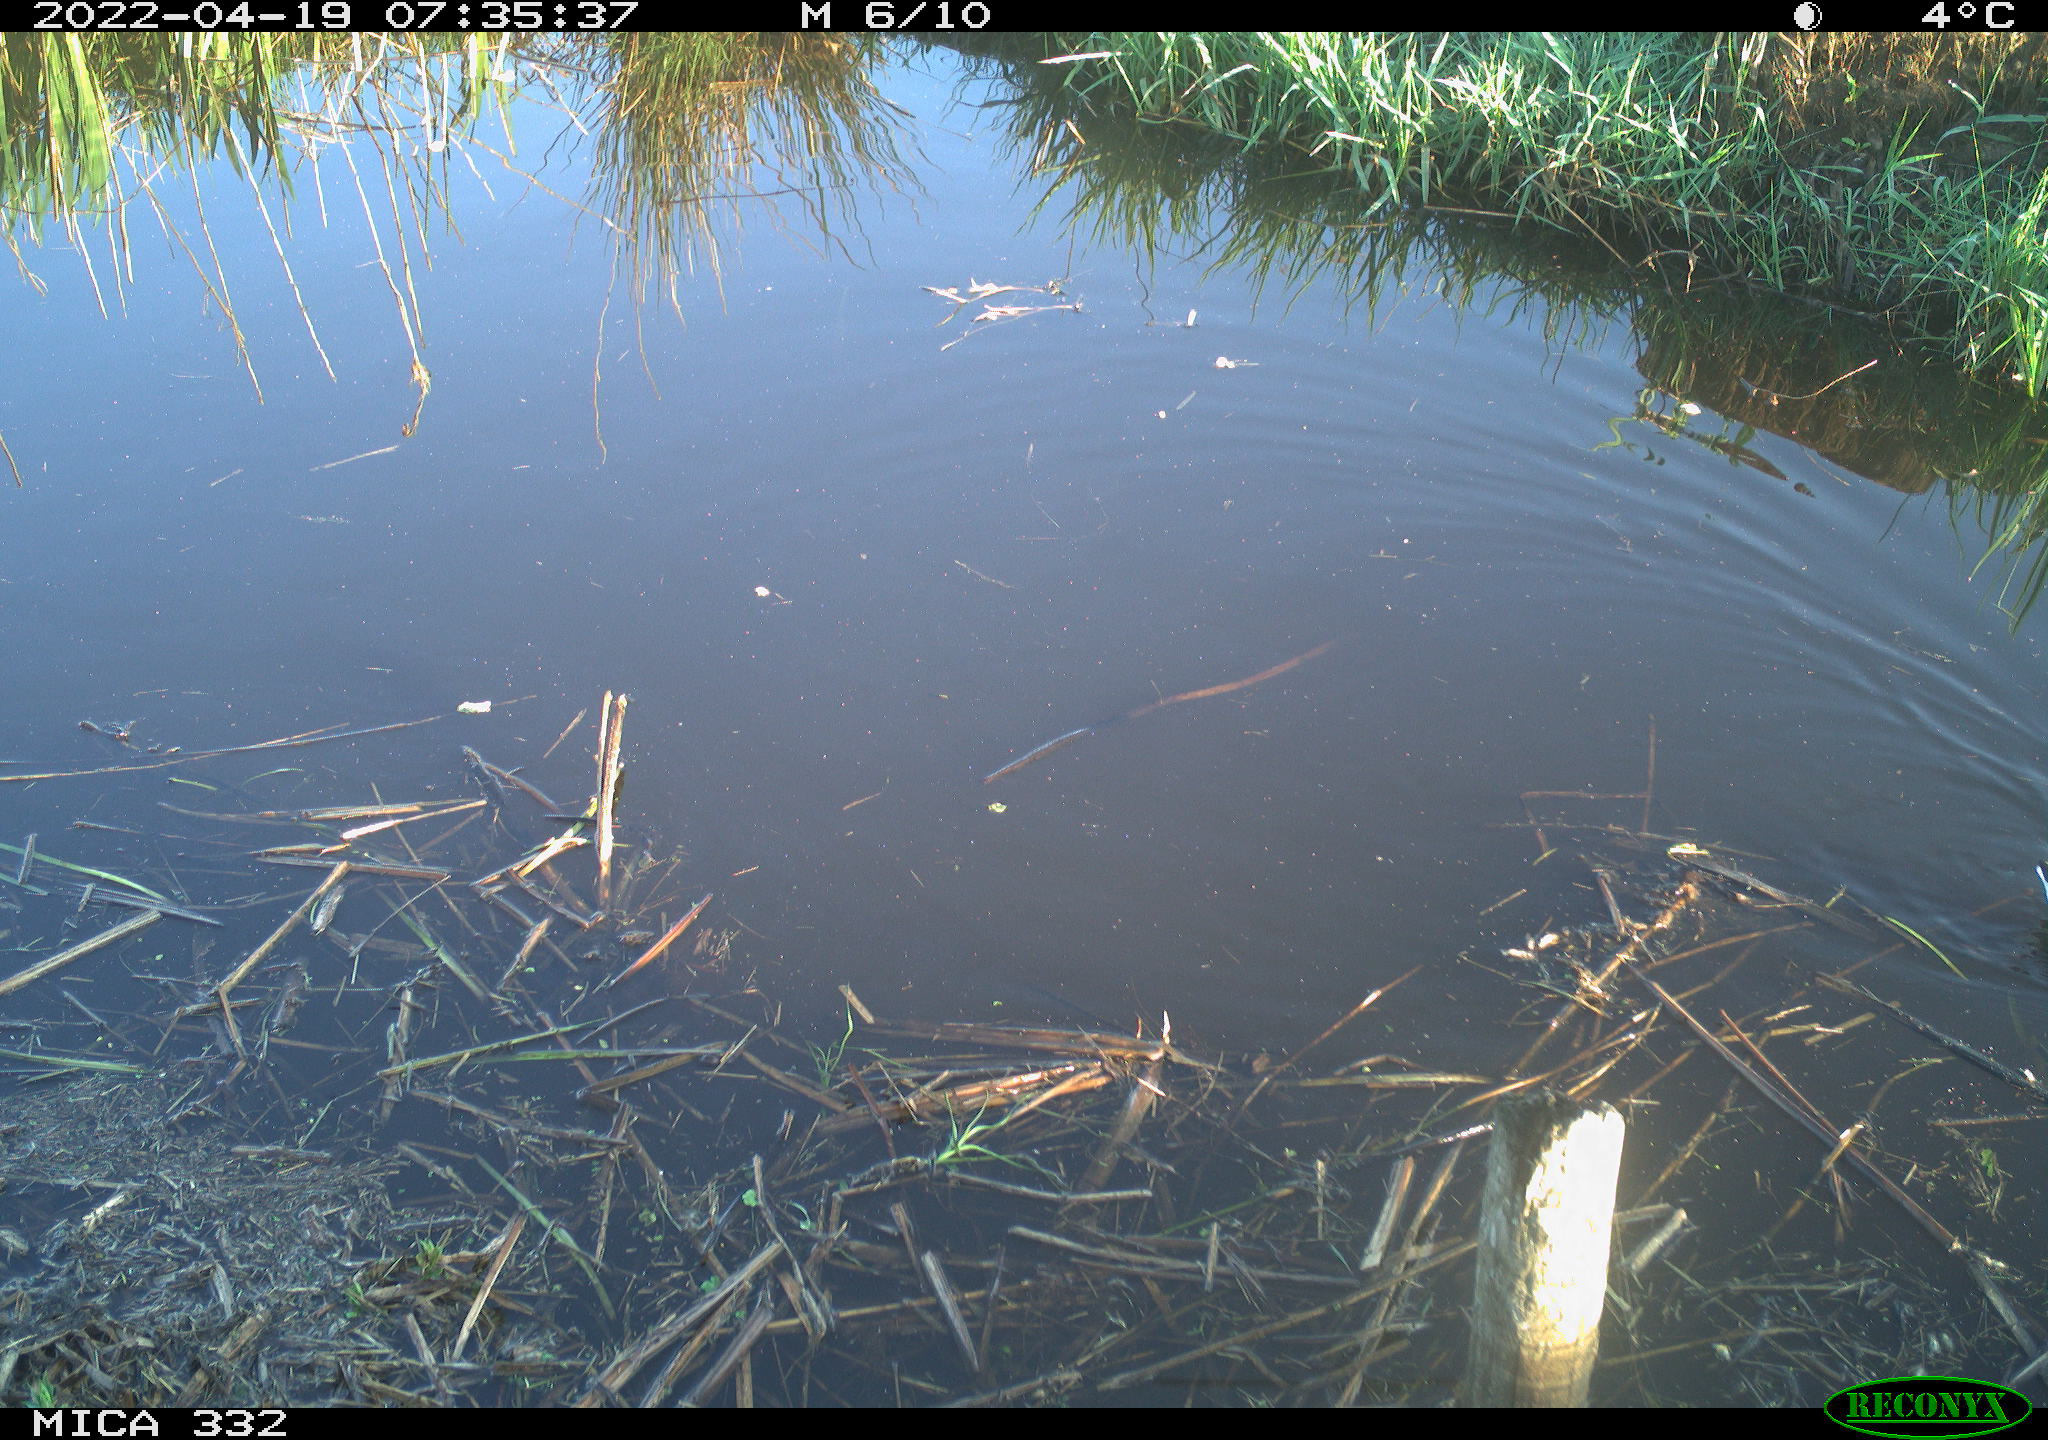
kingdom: Animalia
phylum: Chordata
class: Aves
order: Gruiformes
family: Rallidae
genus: Gallinula
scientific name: Gallinula chloropus
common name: Common moorhen
